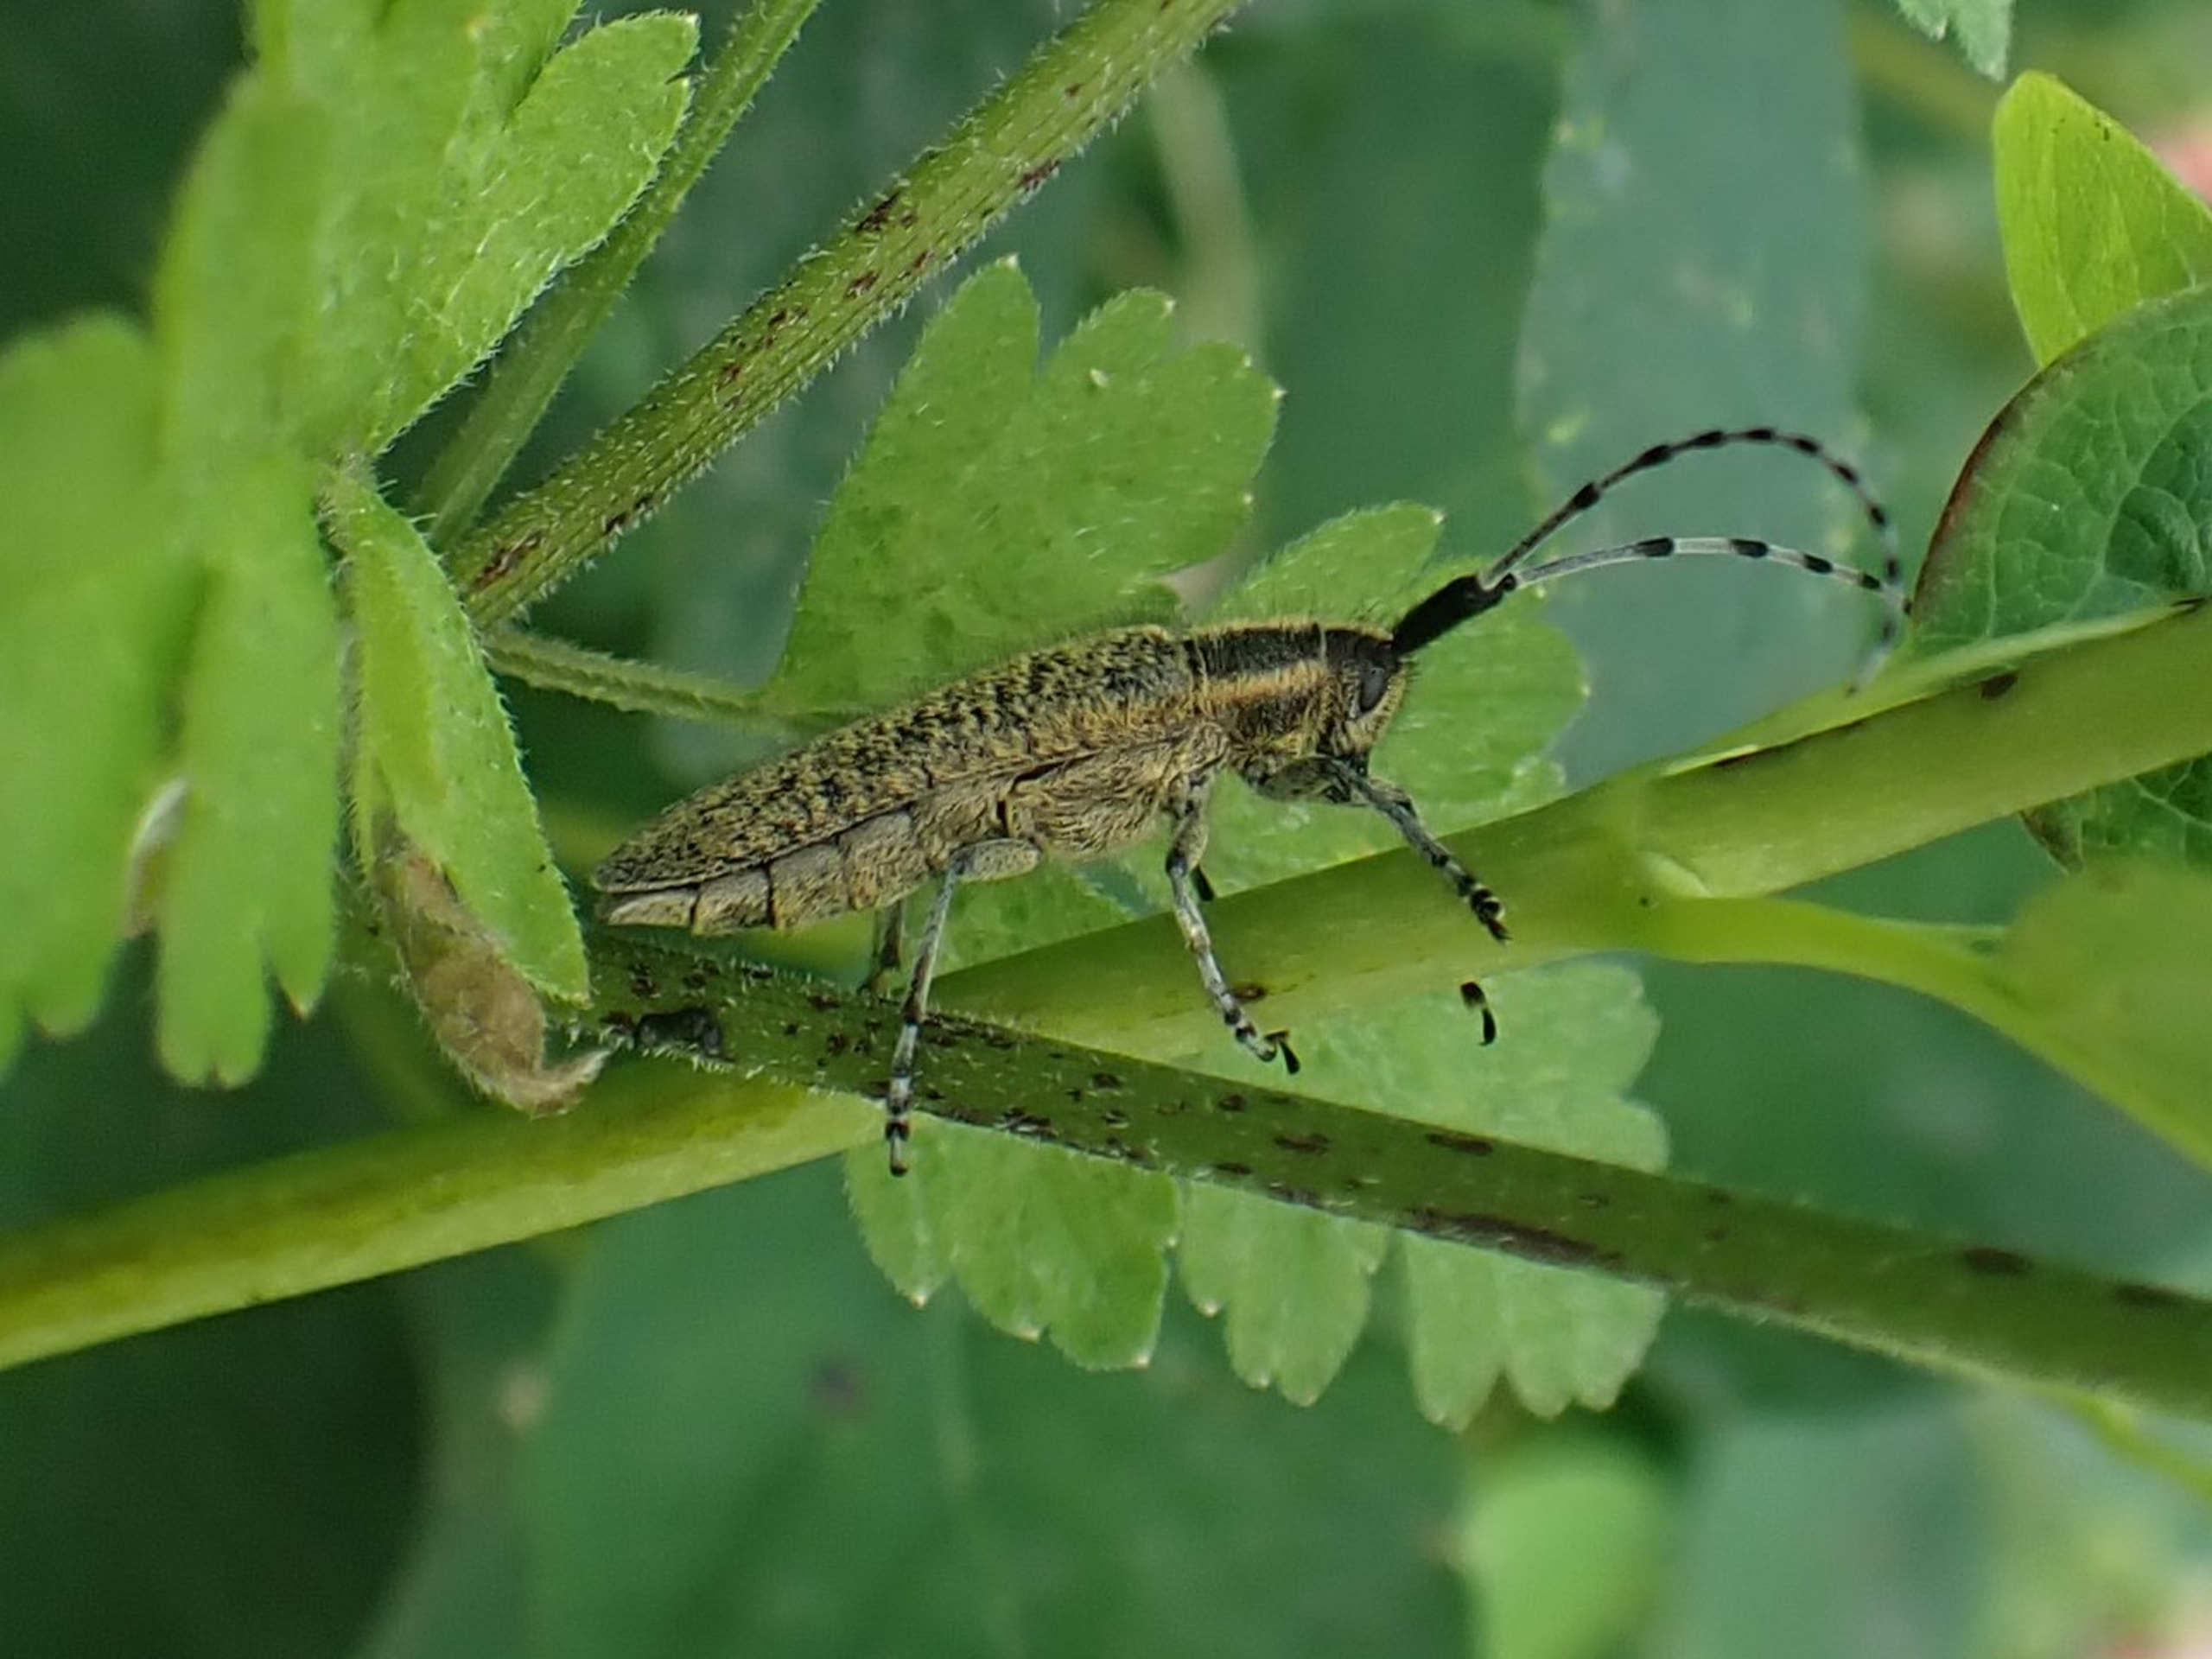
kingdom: Animalia
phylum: Arthropoda
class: Insecta
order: Coleoptera
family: Cerambycidae
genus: Agapanthia
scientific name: Agapanthia villosoviridescens
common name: Tidselbuk
